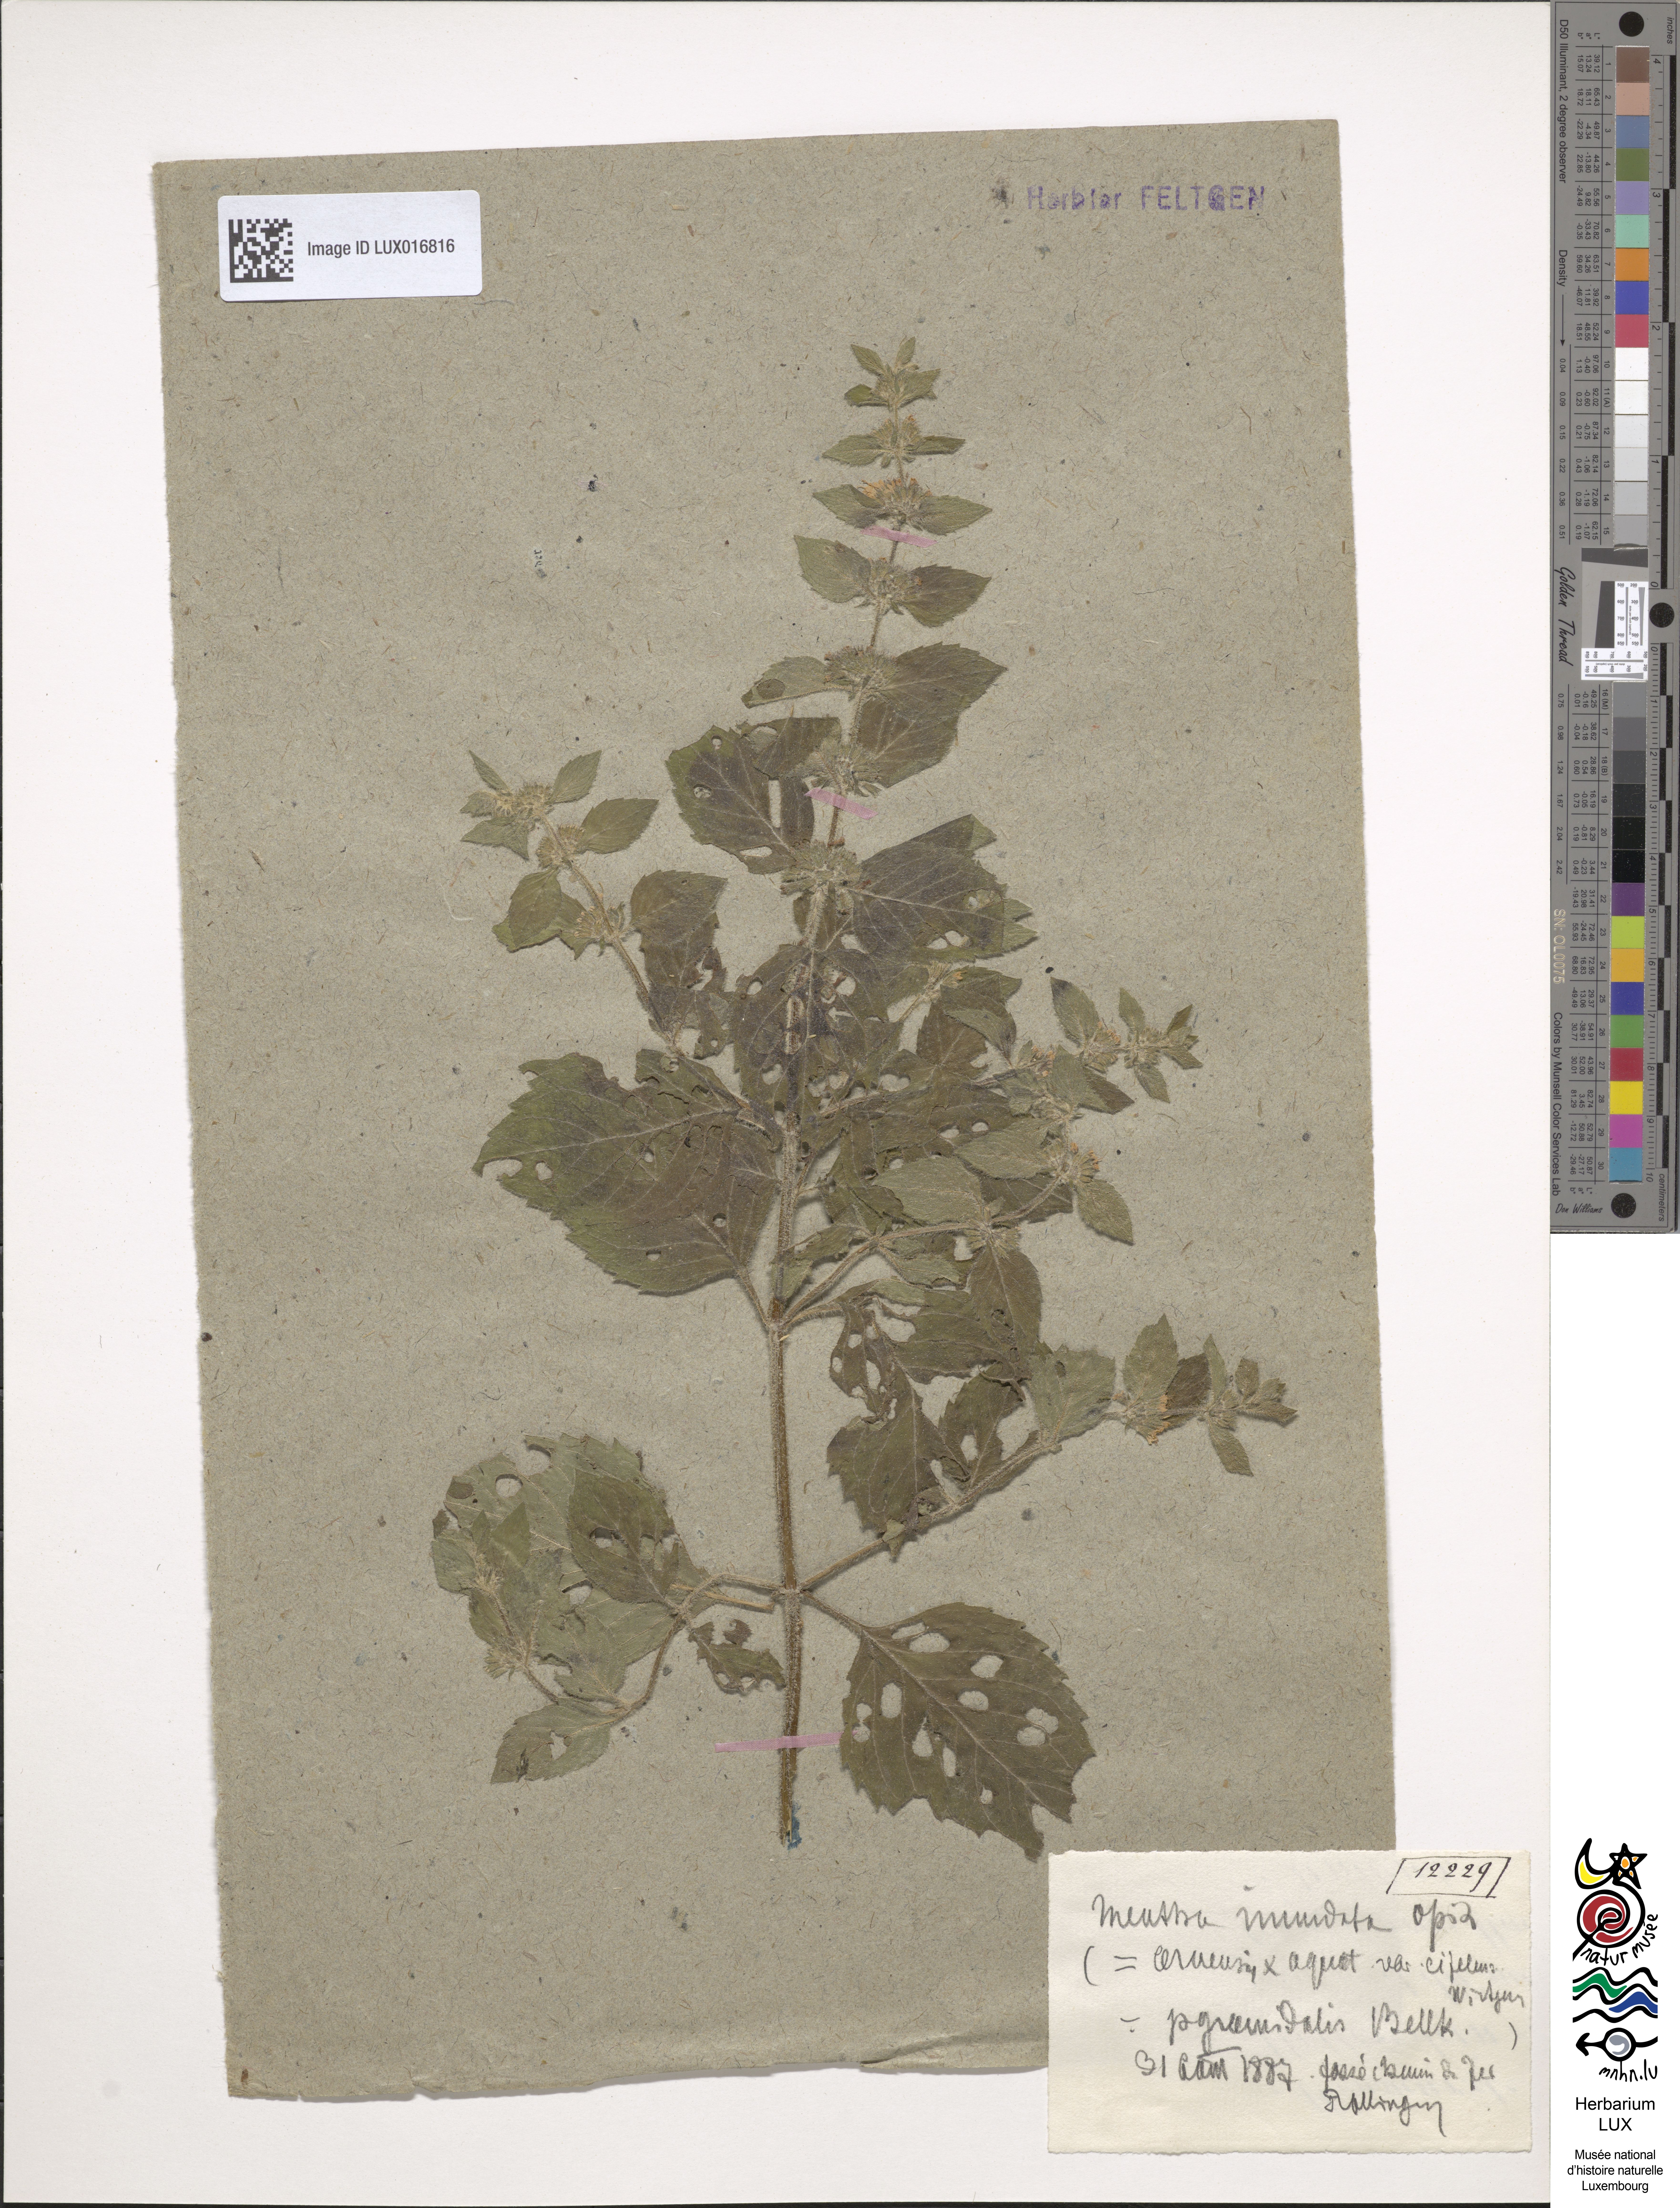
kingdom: Plantae
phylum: Tracheophyta
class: Magnoliopsida
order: Lamiales
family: Lamiaceae
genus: Mentha
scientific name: Mentha verticillata
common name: Mint
